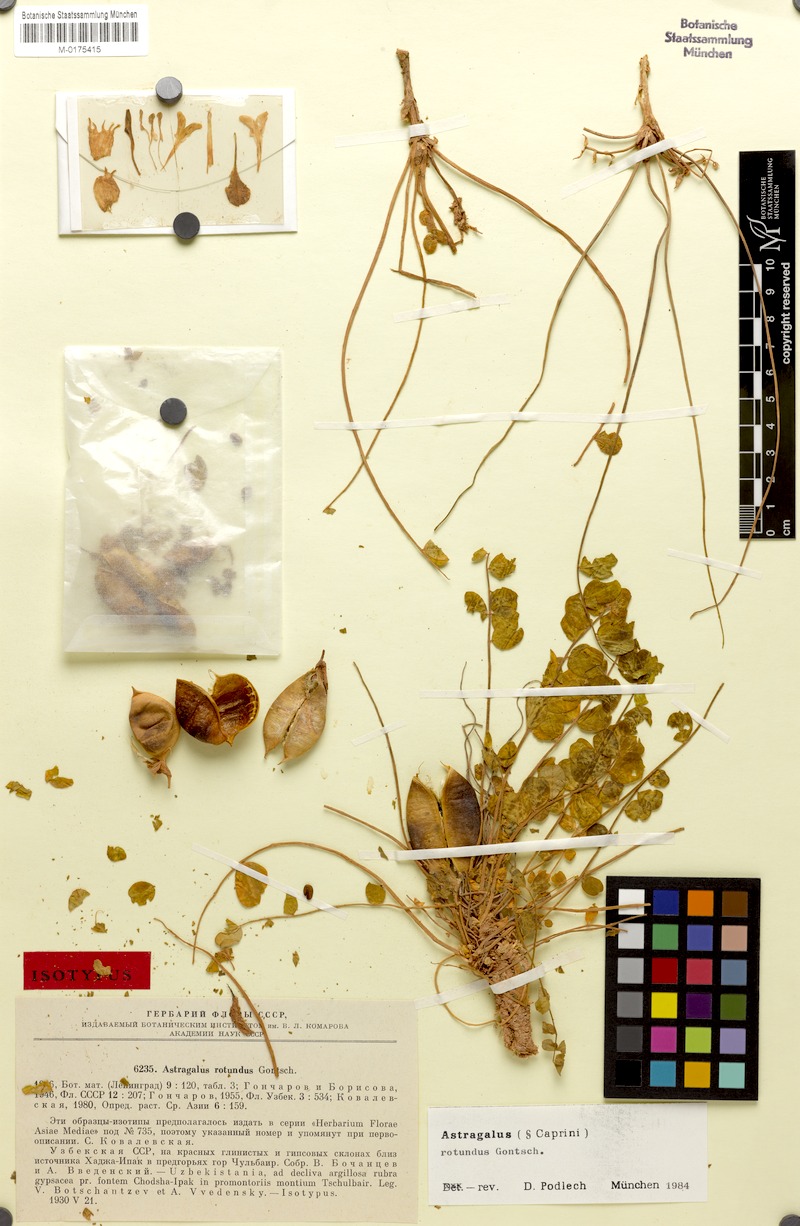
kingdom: Plantae
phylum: Tracheophyta
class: Magnoliopsida
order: Fabales
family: Fabaceae
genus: Astragalus
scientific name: Astragalus rotundus
